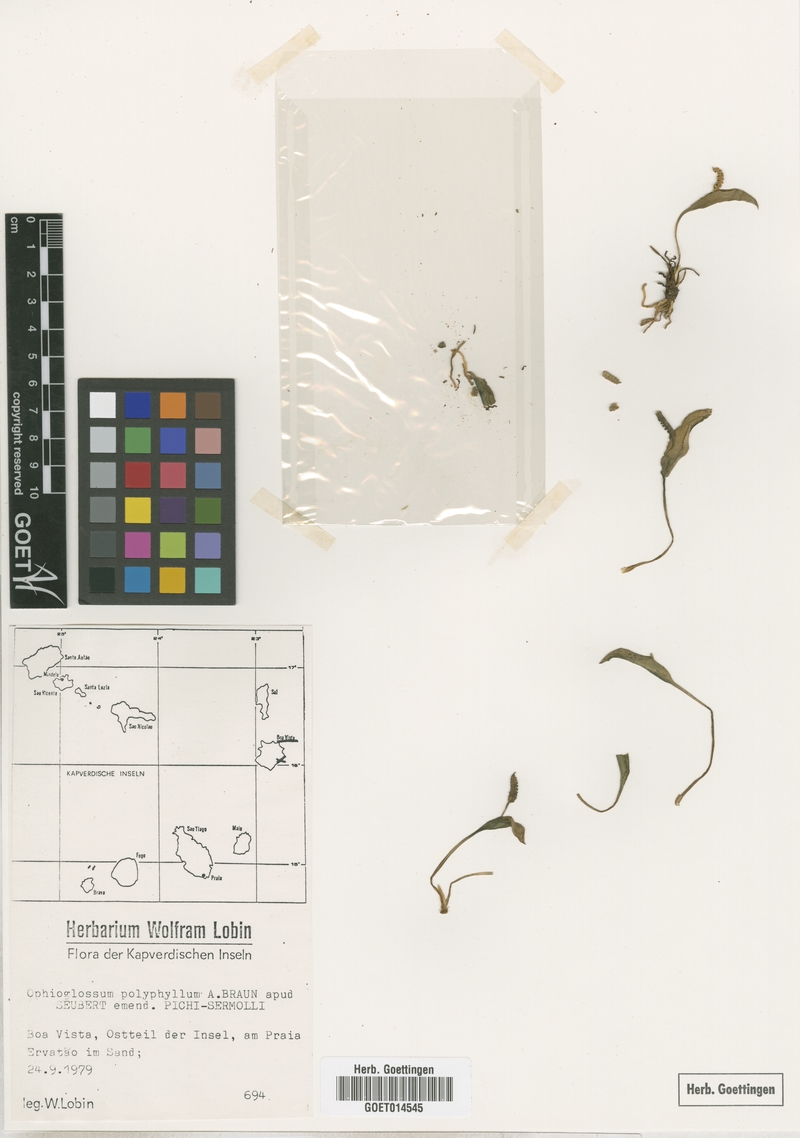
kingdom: Plantae
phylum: Tracheophyta
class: Polypodiopsida
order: Ophioglossales
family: Ophioglossaceae
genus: Ophioglossum
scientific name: Ophioglossum polyphyllum
